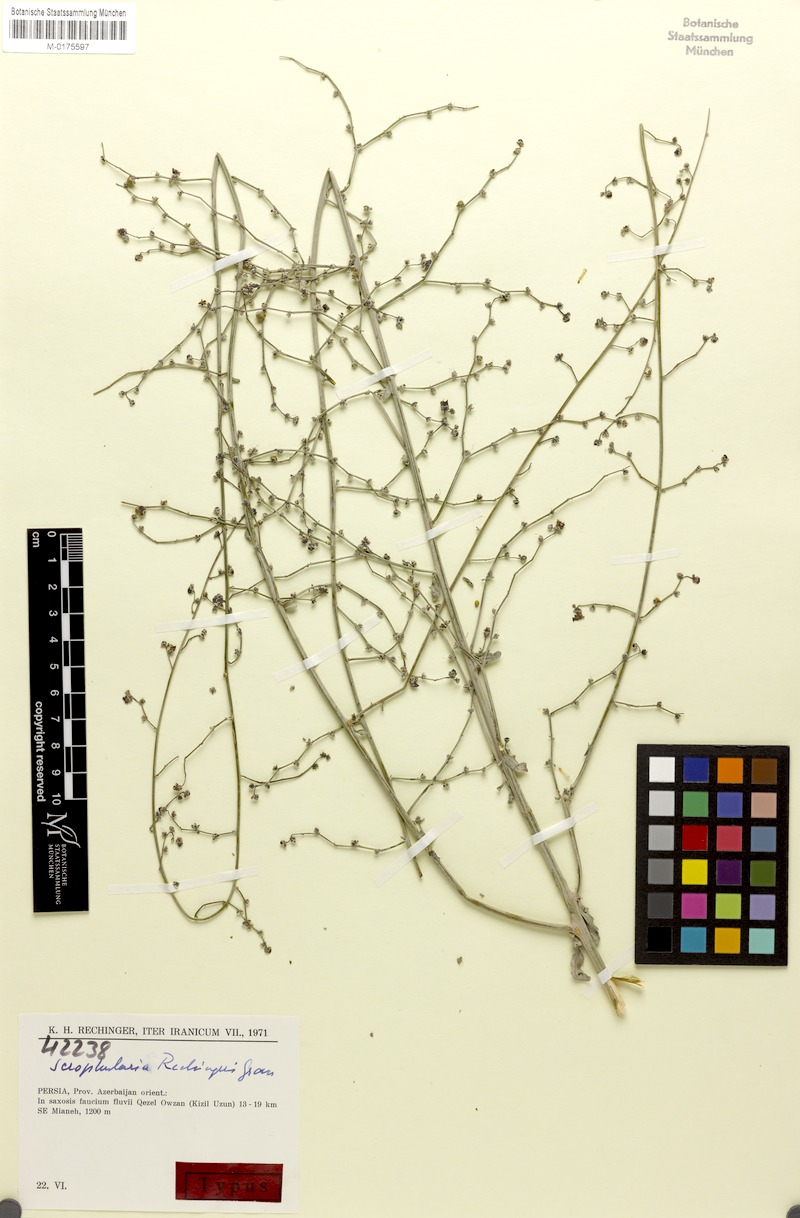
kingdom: Plantae
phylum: Tracheophyta
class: Magnoliopsida
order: Lamiales
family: Scrophulariaceae
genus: Scrophularia
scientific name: Scrophularia rechingeri
